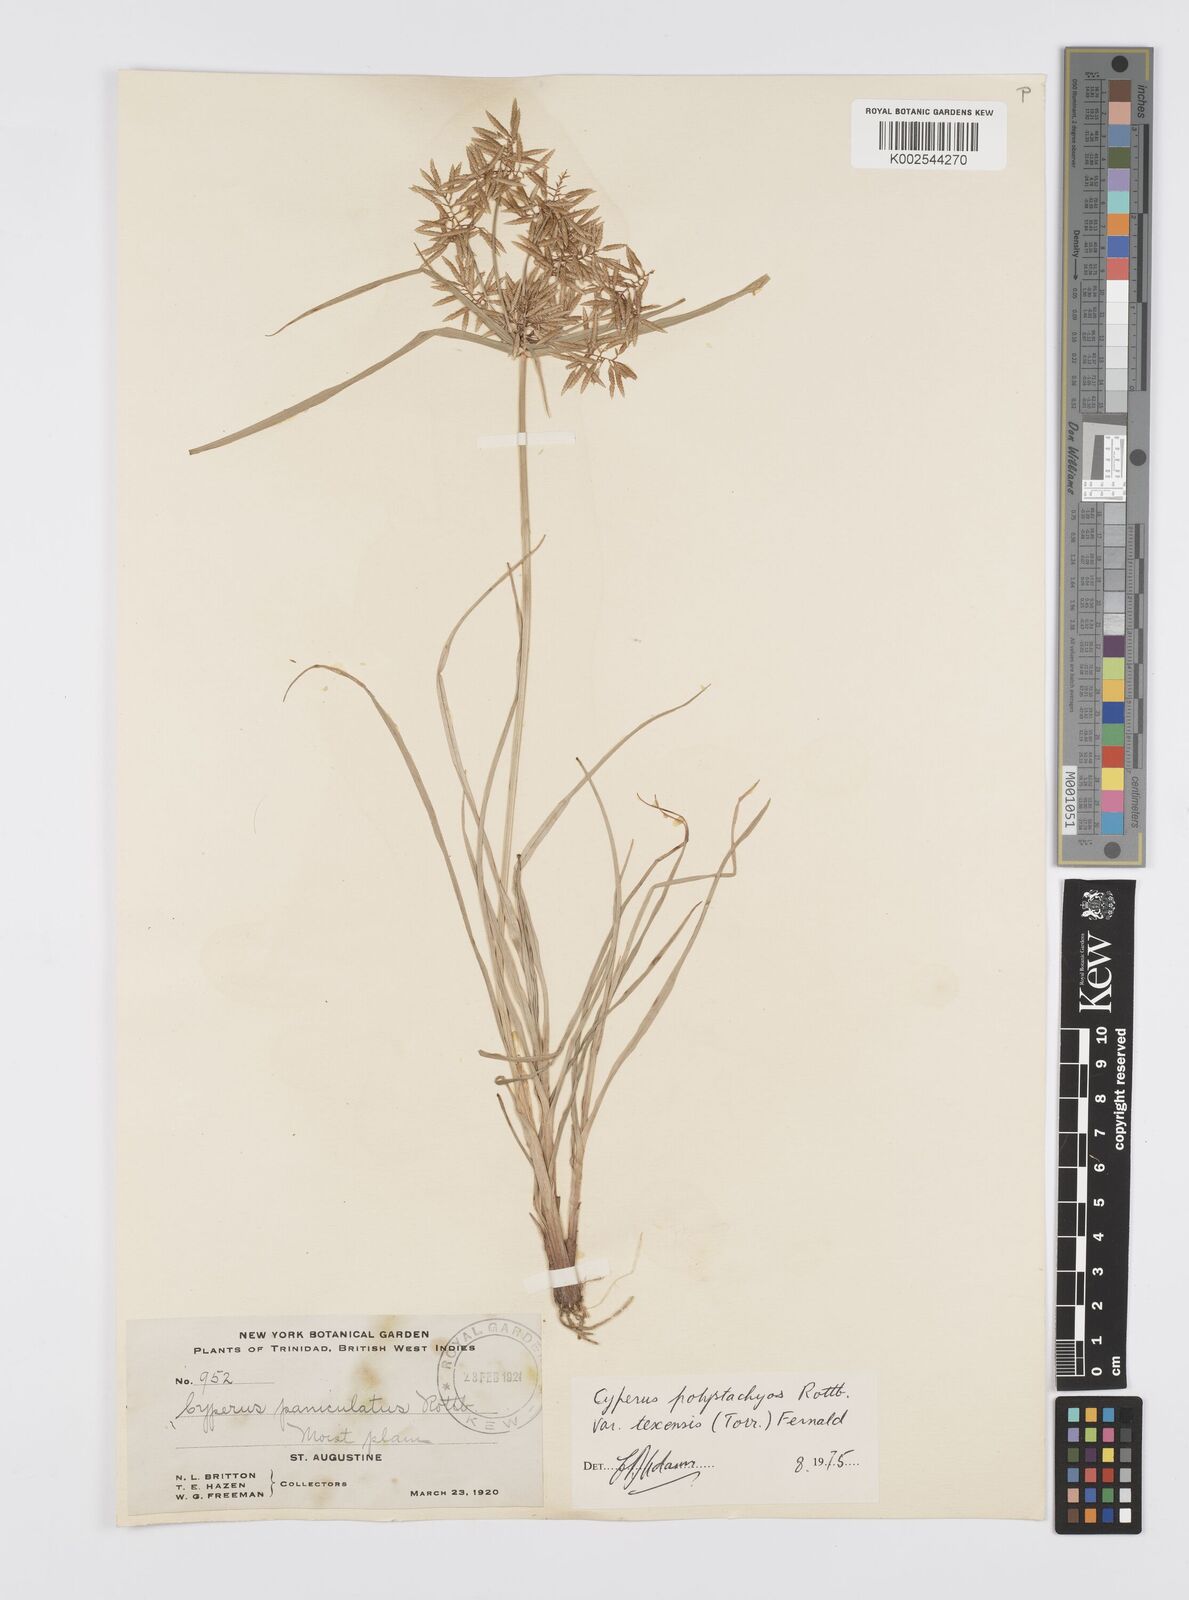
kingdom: Plantae
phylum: Tracheophyta
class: Liliopsida
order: Poales
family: Cyperaceae
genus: Cyperus
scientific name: Cyperus polystachyos
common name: Bunchy flat sedge
